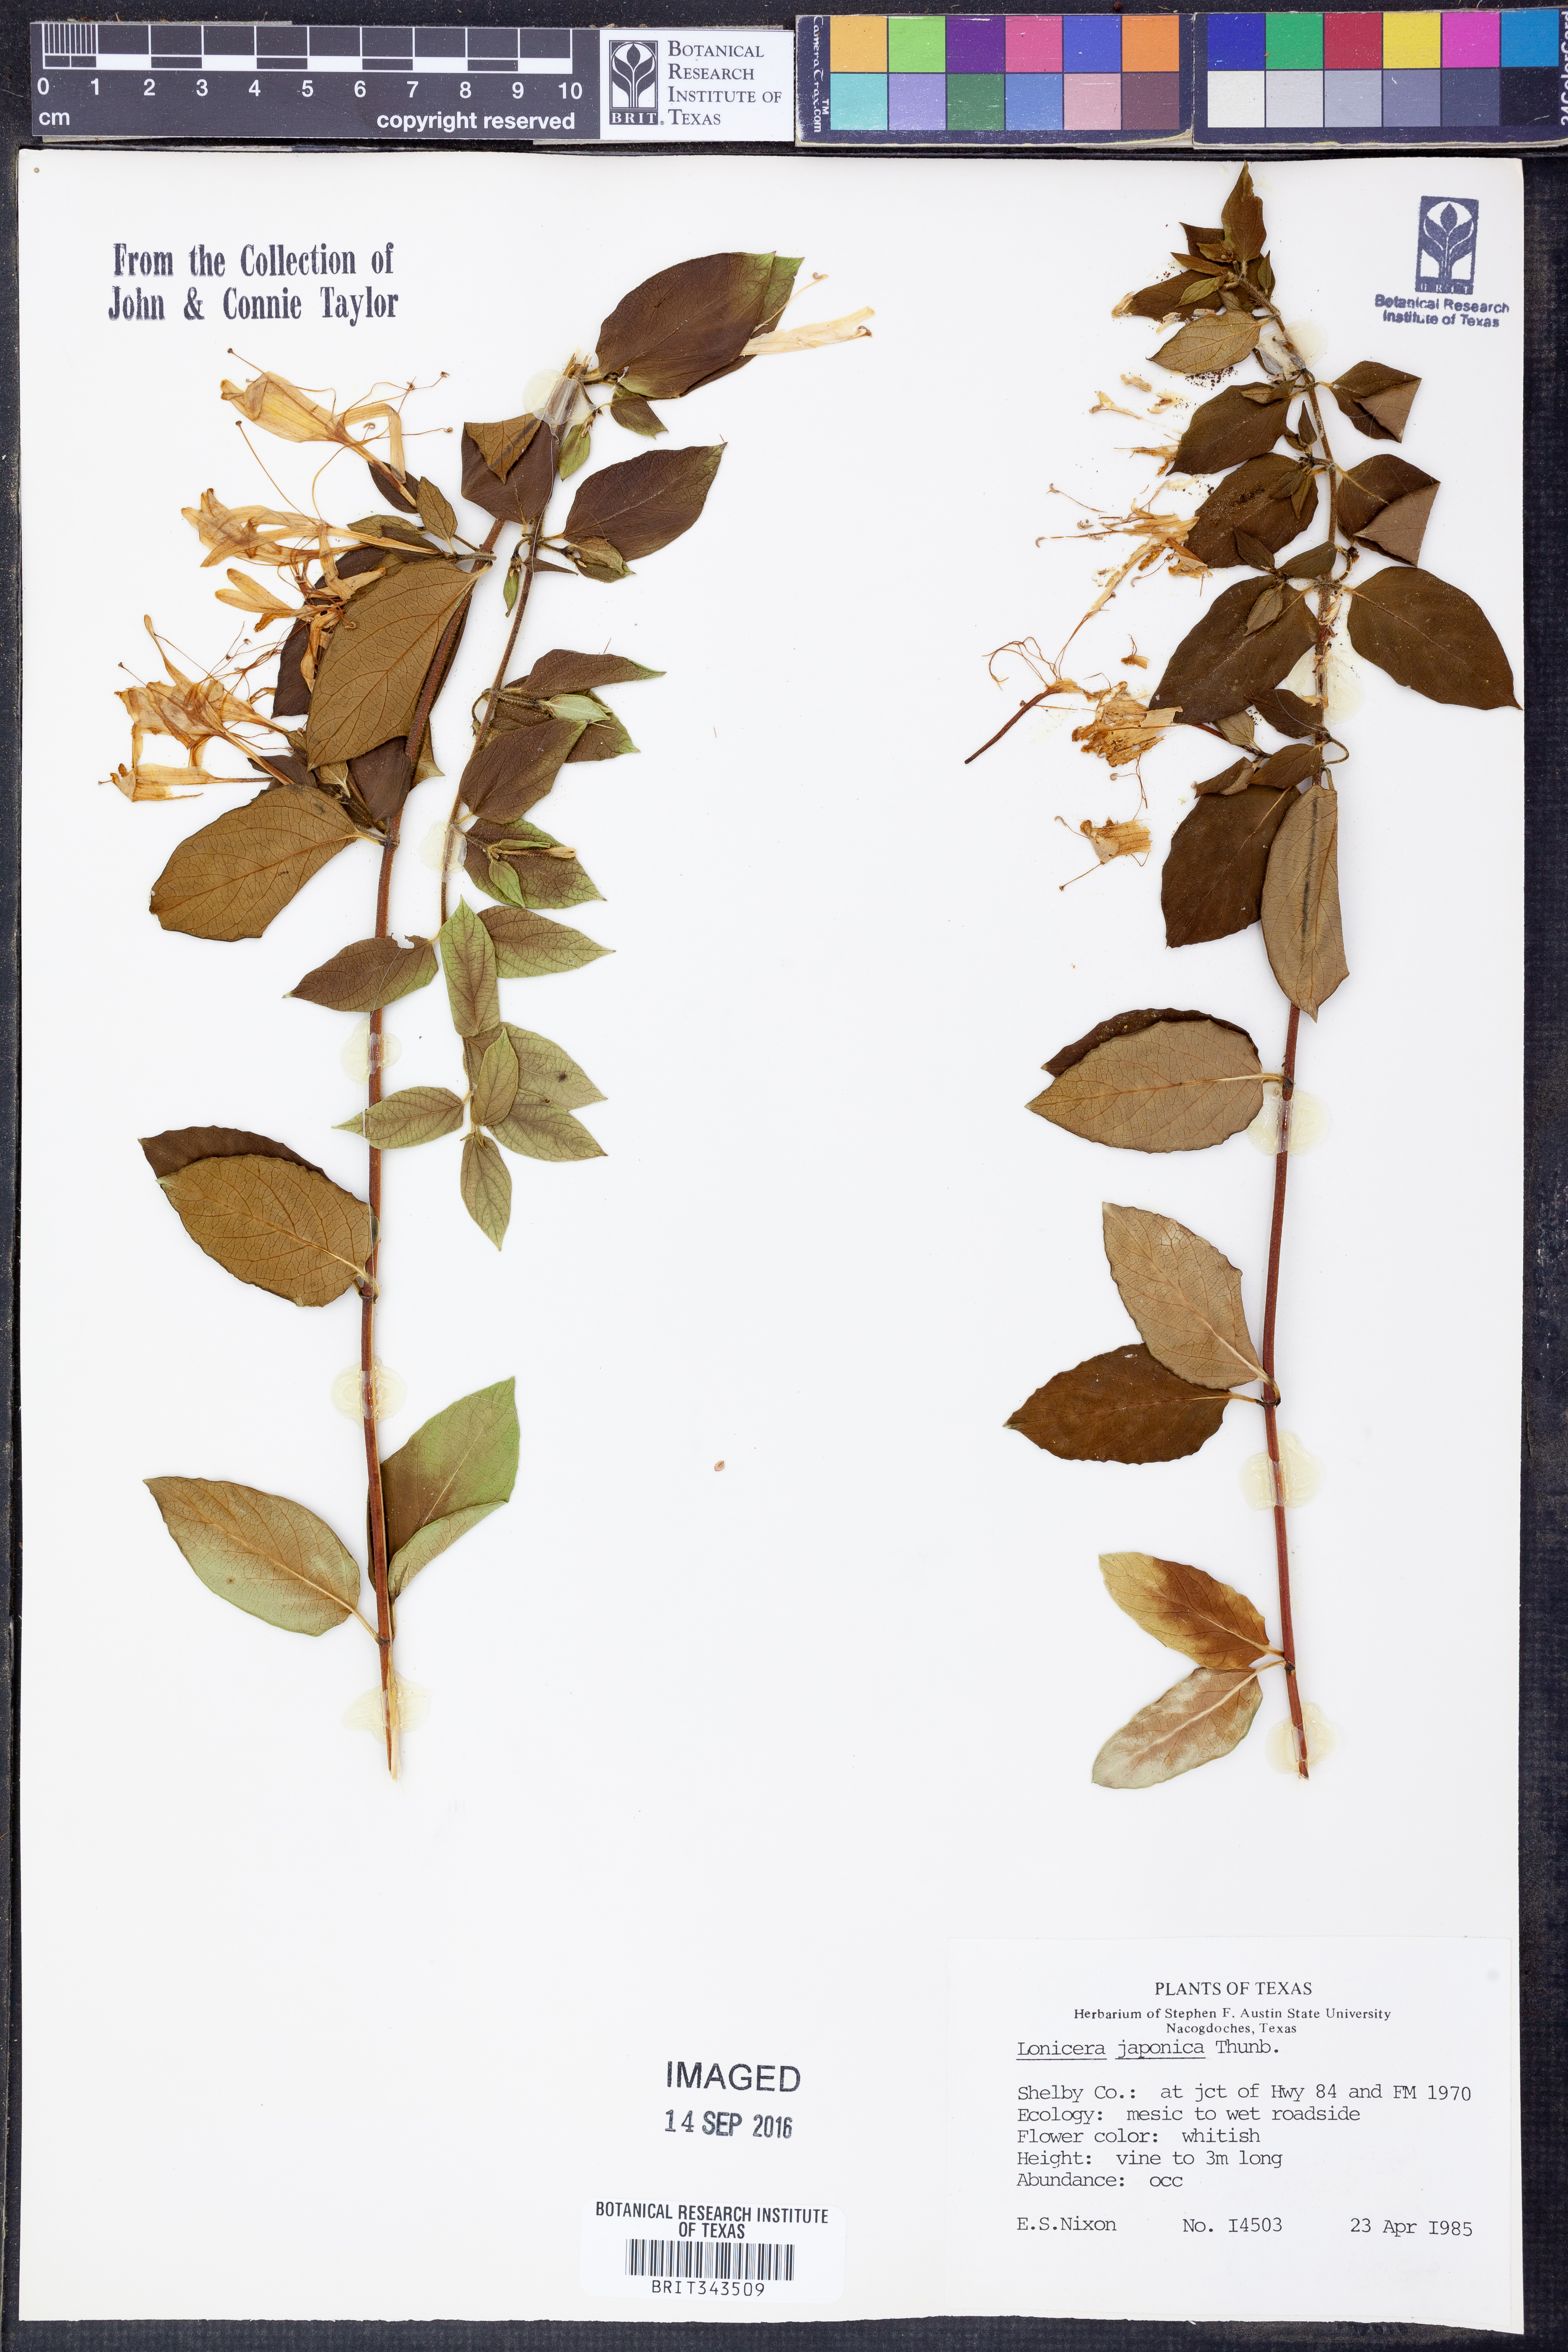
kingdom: Plantae
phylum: Tracheophyta
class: Magnoliopsida
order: Dipsacales
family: Caprifoliaceae
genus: Lonicera
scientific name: Lonicera japonica
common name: Japanese honeysuckle
